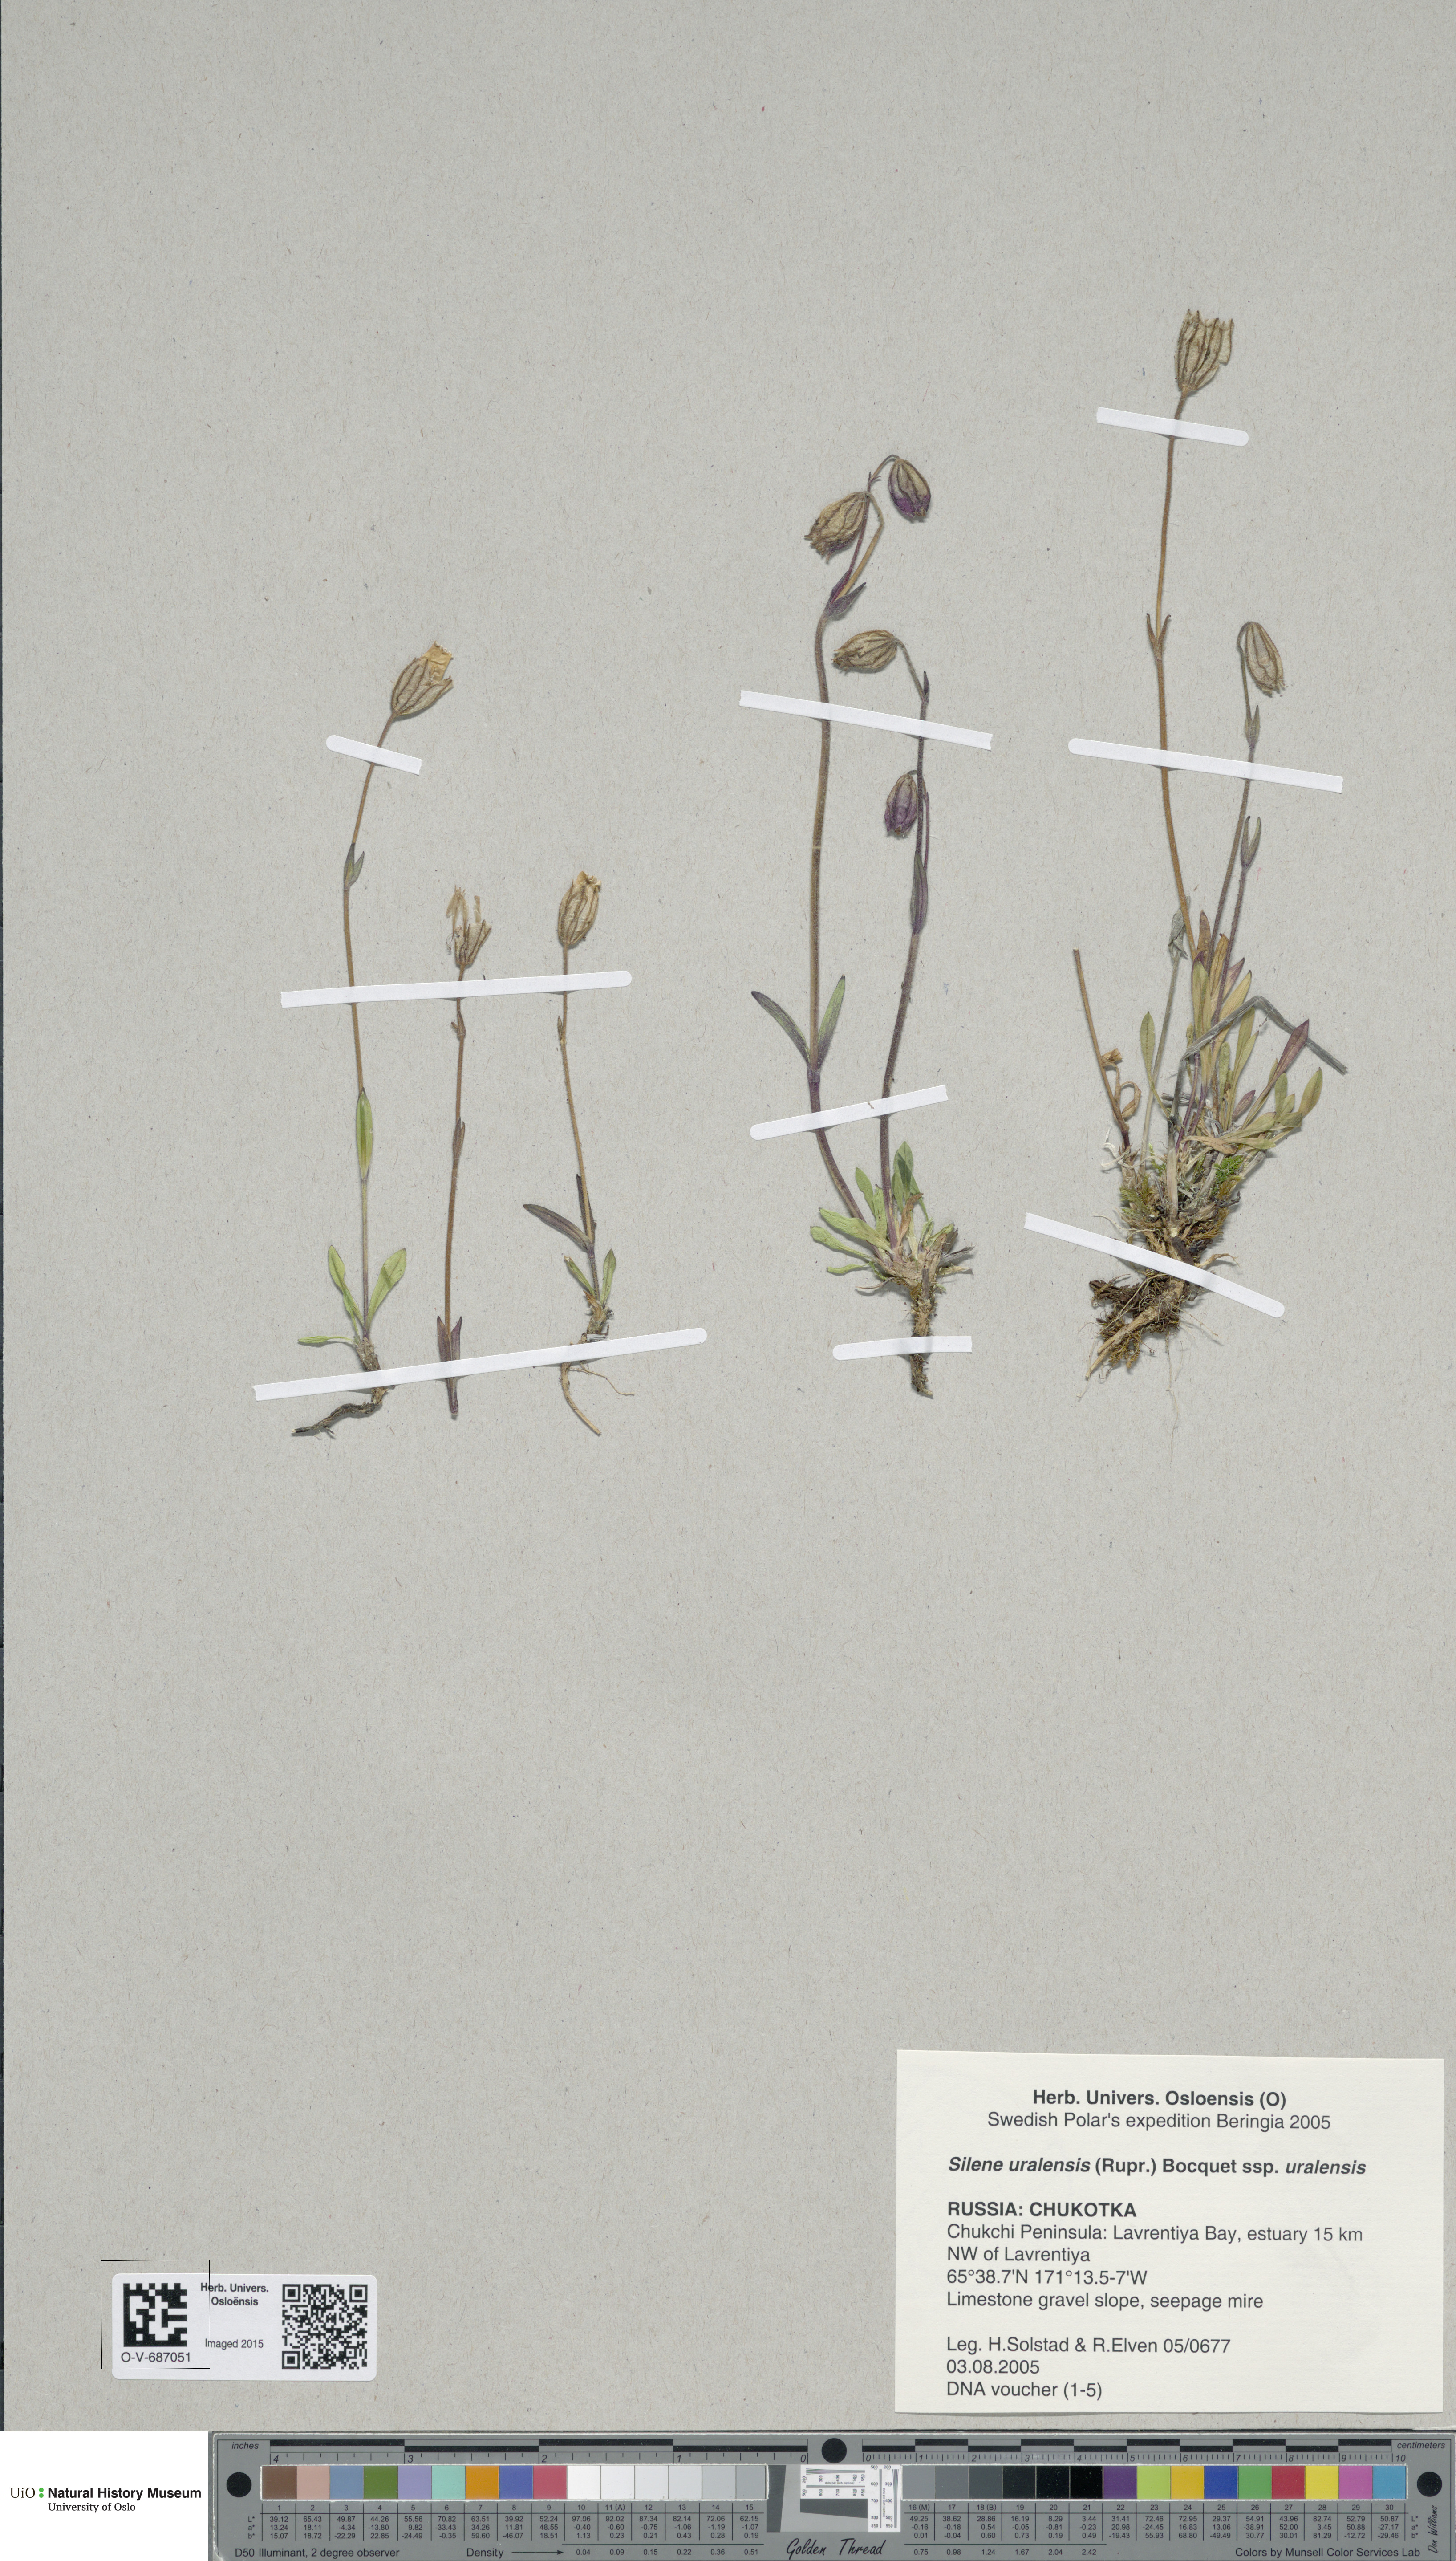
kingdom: Plantae
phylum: Tracheophyta
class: Magnoliopsida
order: Caryophyllales
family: Caryophyllaceae
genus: Silene
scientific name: Silene uralensis
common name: Nodding campion
